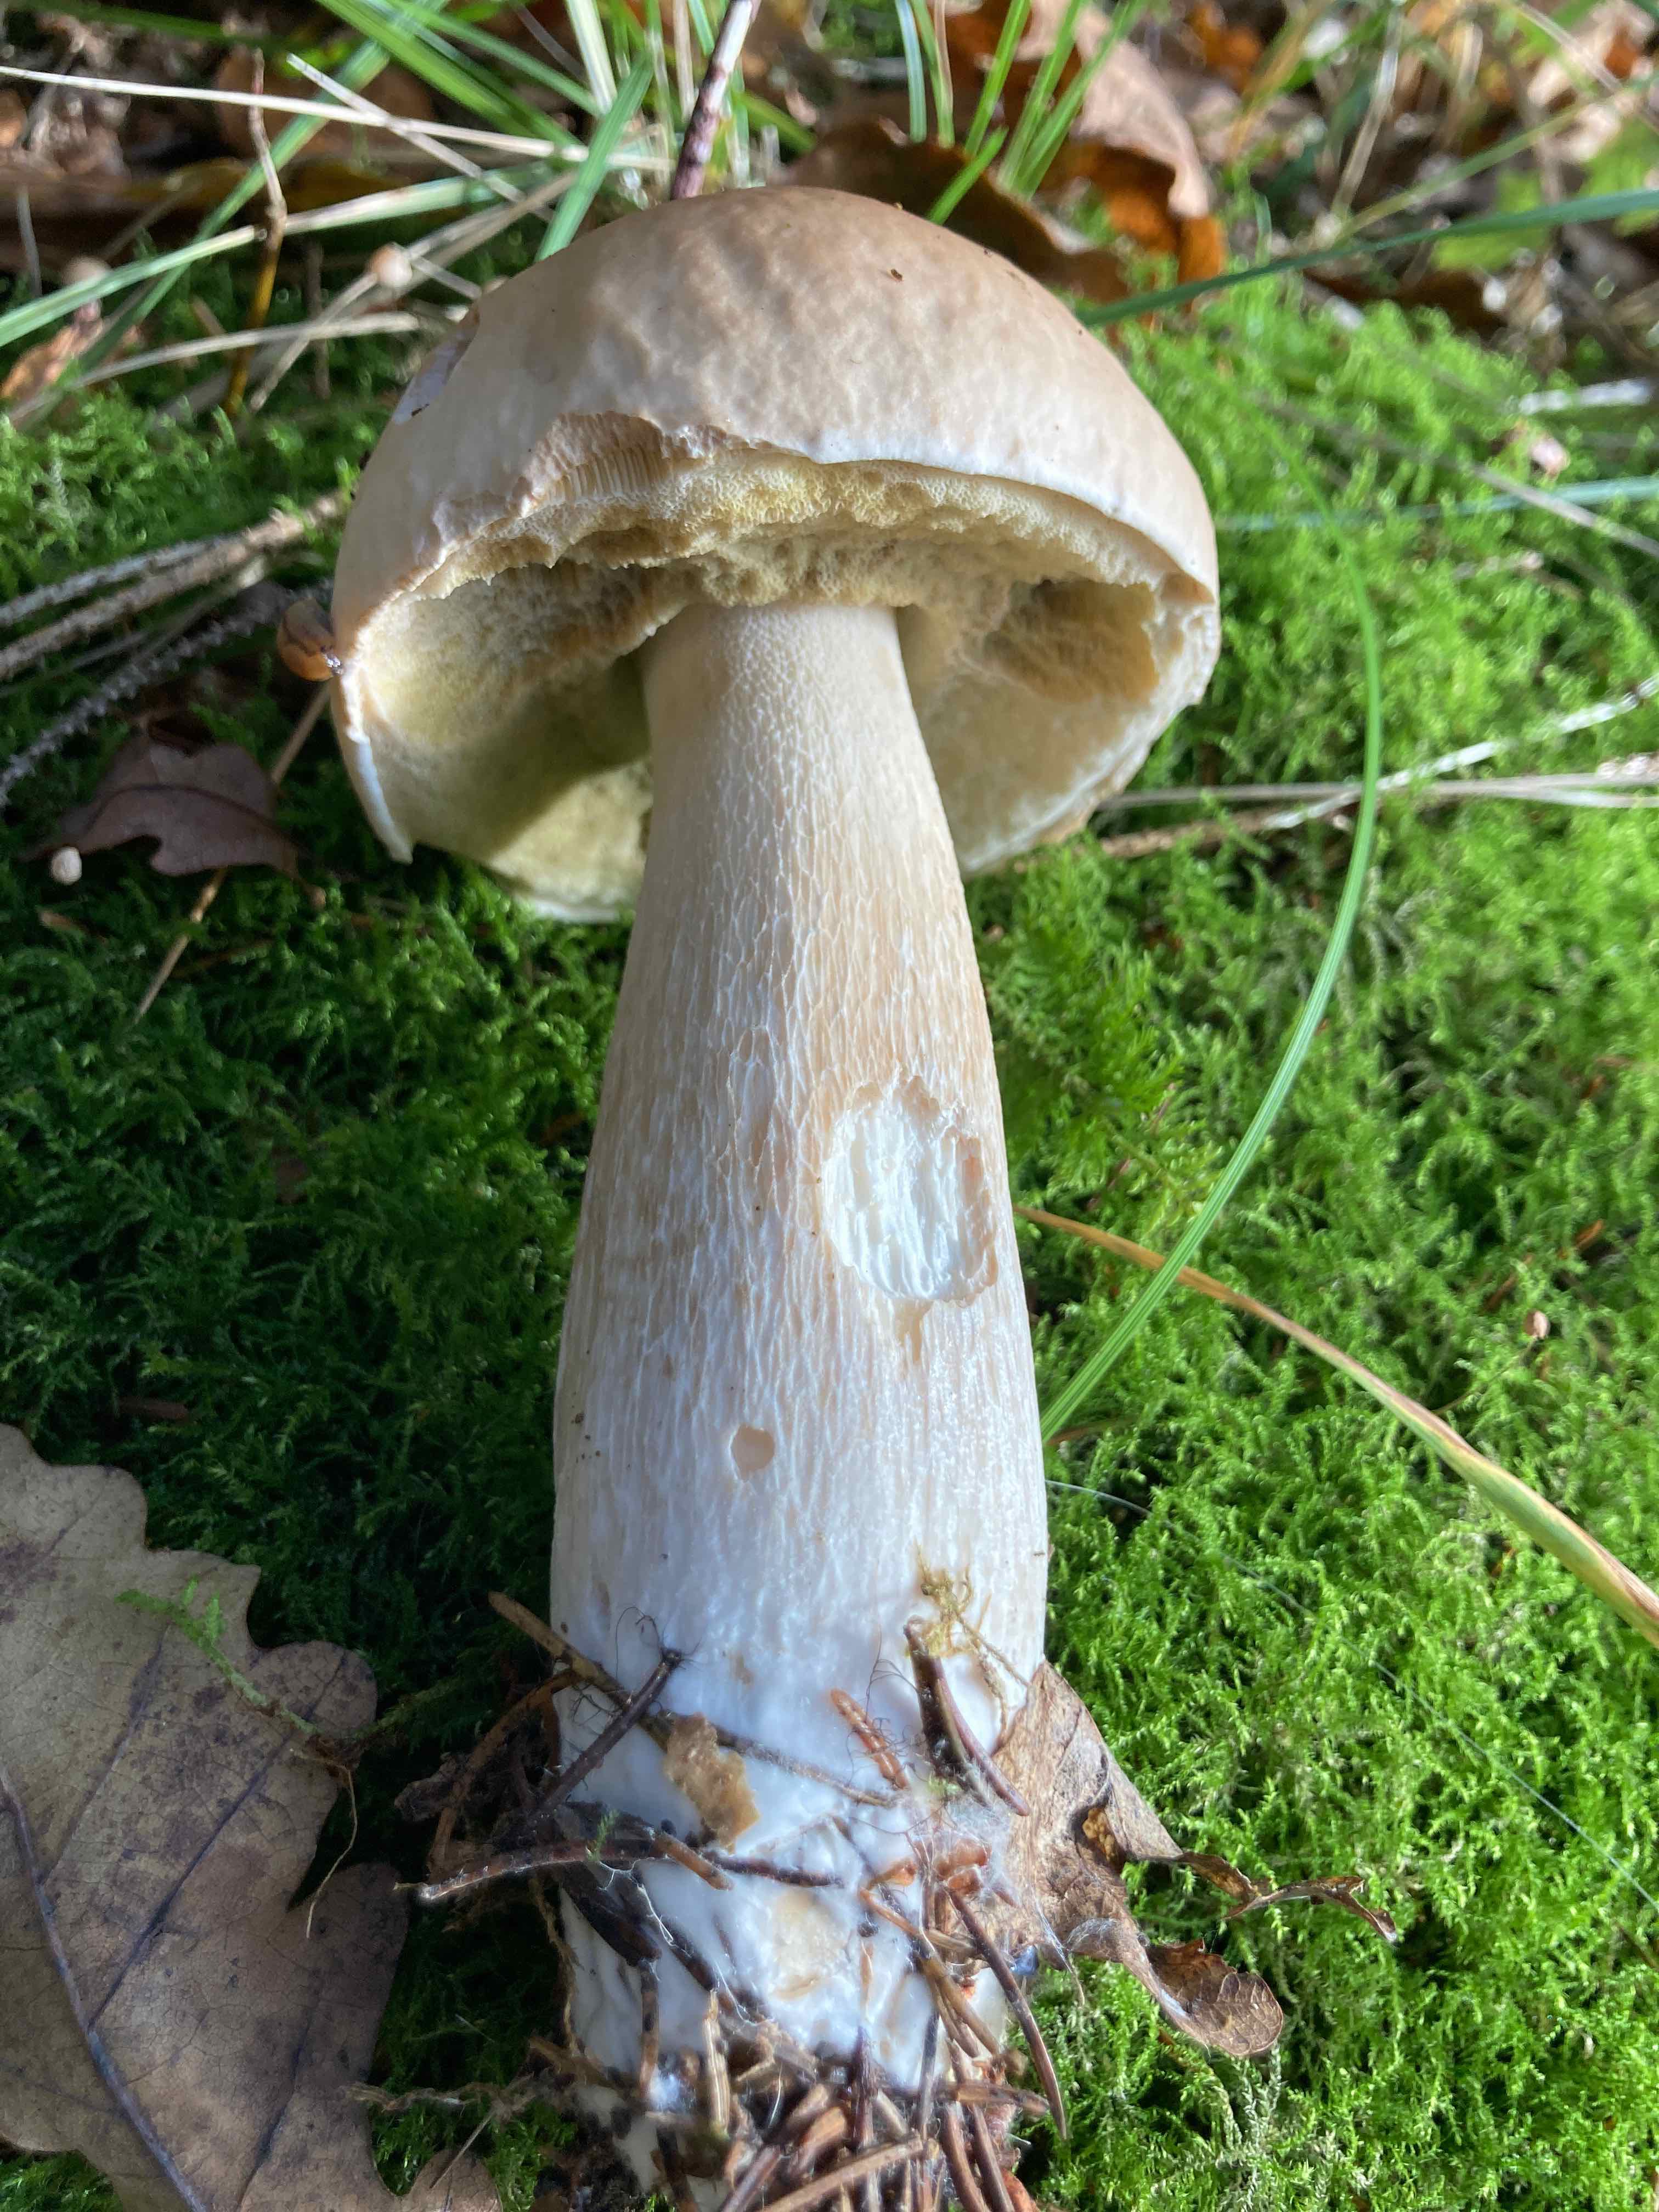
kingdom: Fungi
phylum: Basidiomycota
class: Agaricomycetes
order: Boletales
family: Boletaceae
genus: Boletus
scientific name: Boletus edulis
